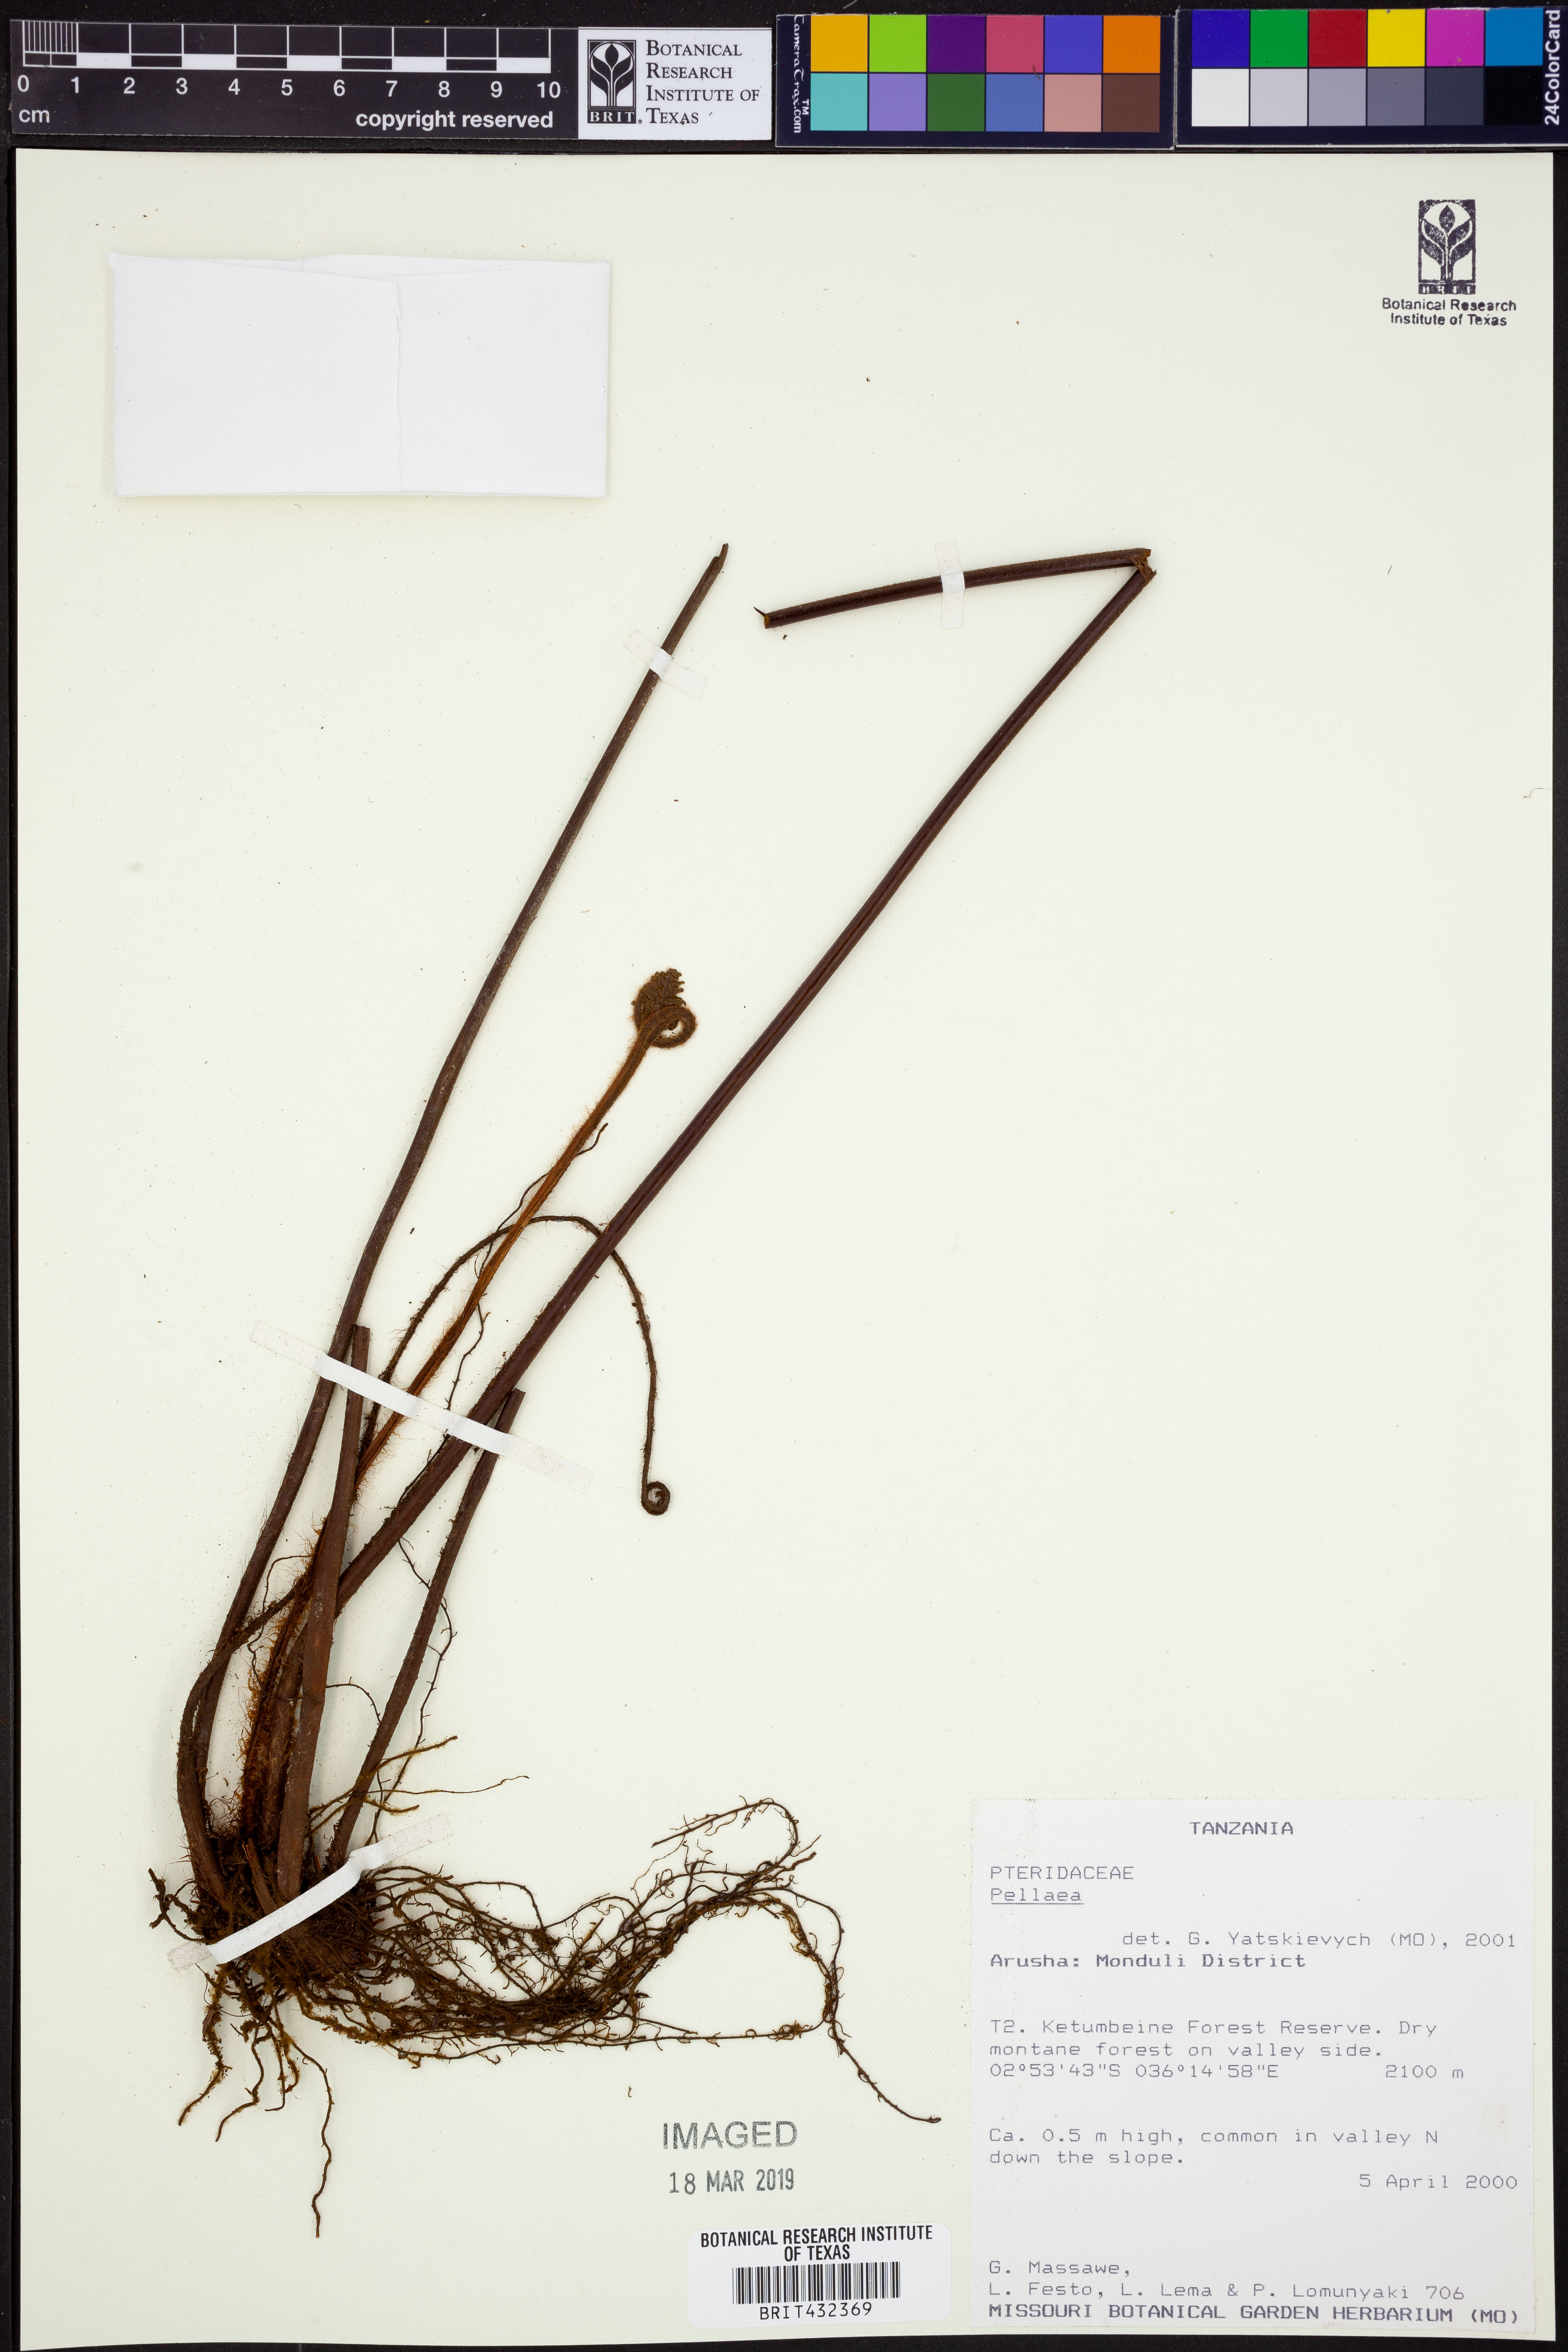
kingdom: Plantae
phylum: Tracheophyta
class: Polypodiopsida
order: Polypodiales
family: Pteridaceae
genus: Pellaea
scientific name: Pellaea
